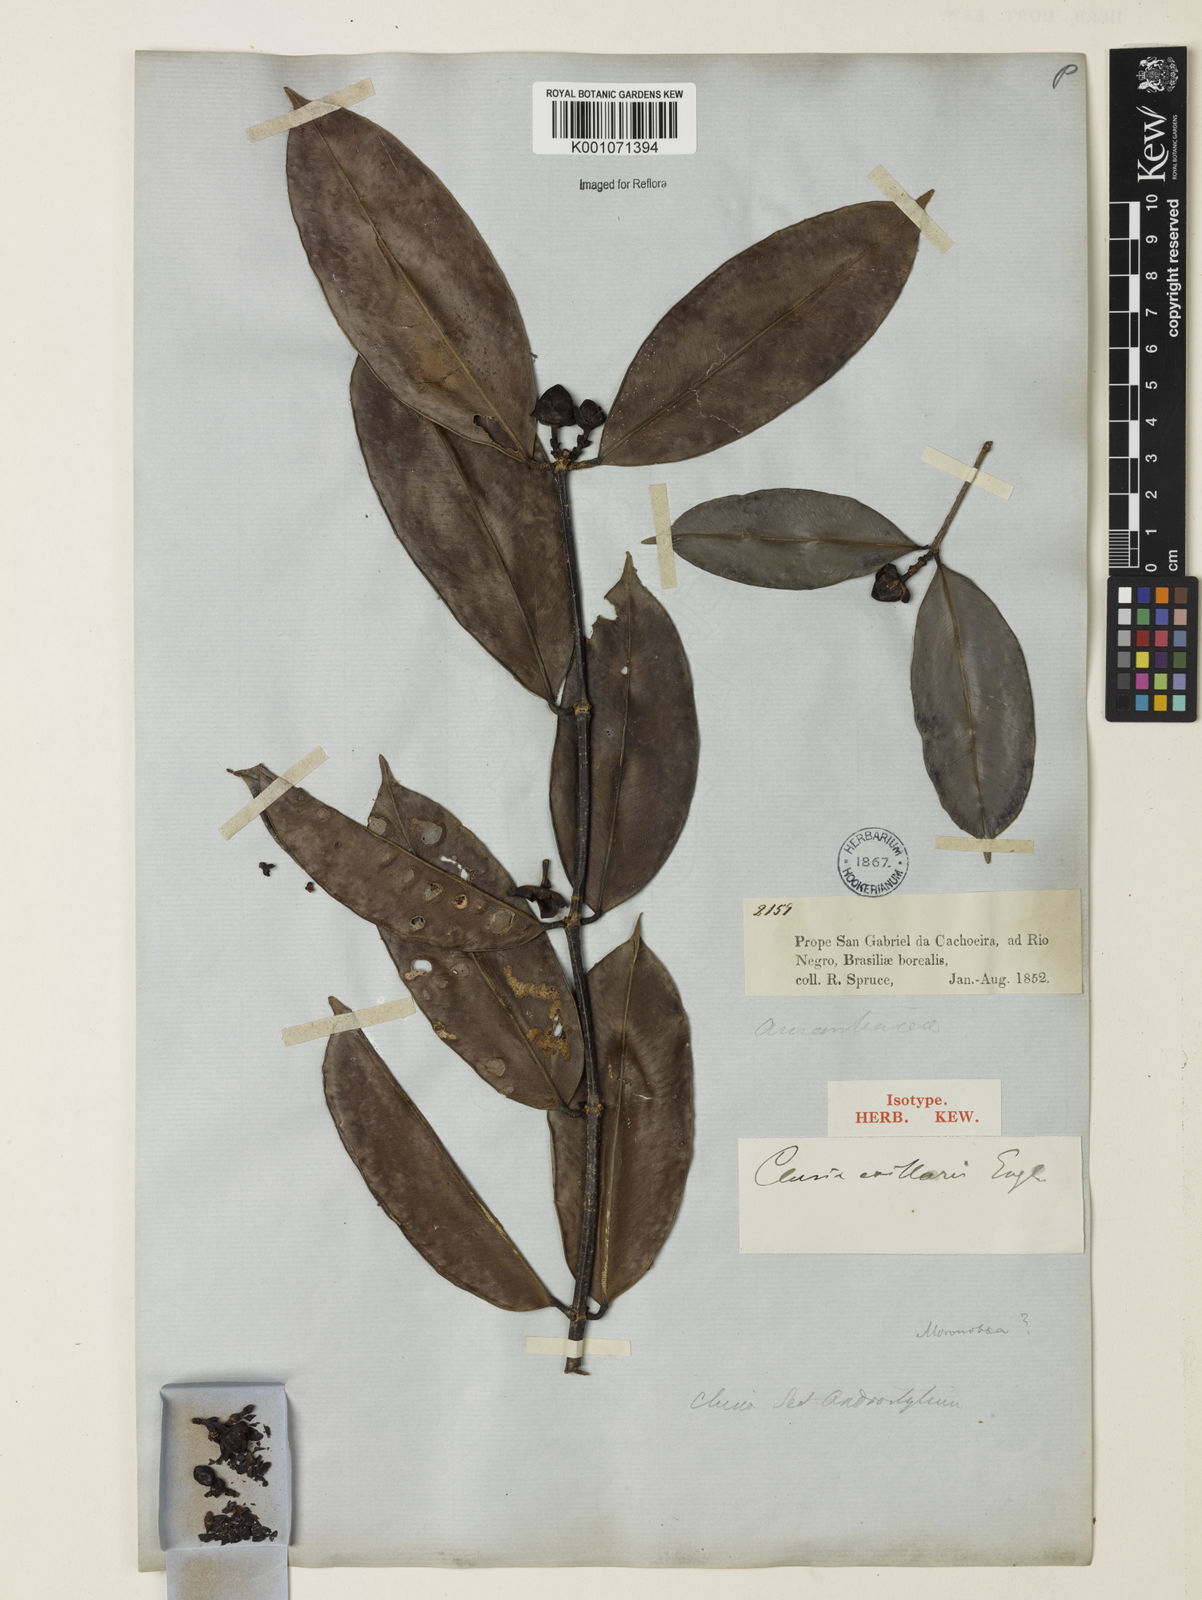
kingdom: Plantae
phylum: Tracheophyta
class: Magnoliopsida
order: Malpighiales
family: Calophyllaceae
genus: Clusiella
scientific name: Clusiella axillaris
